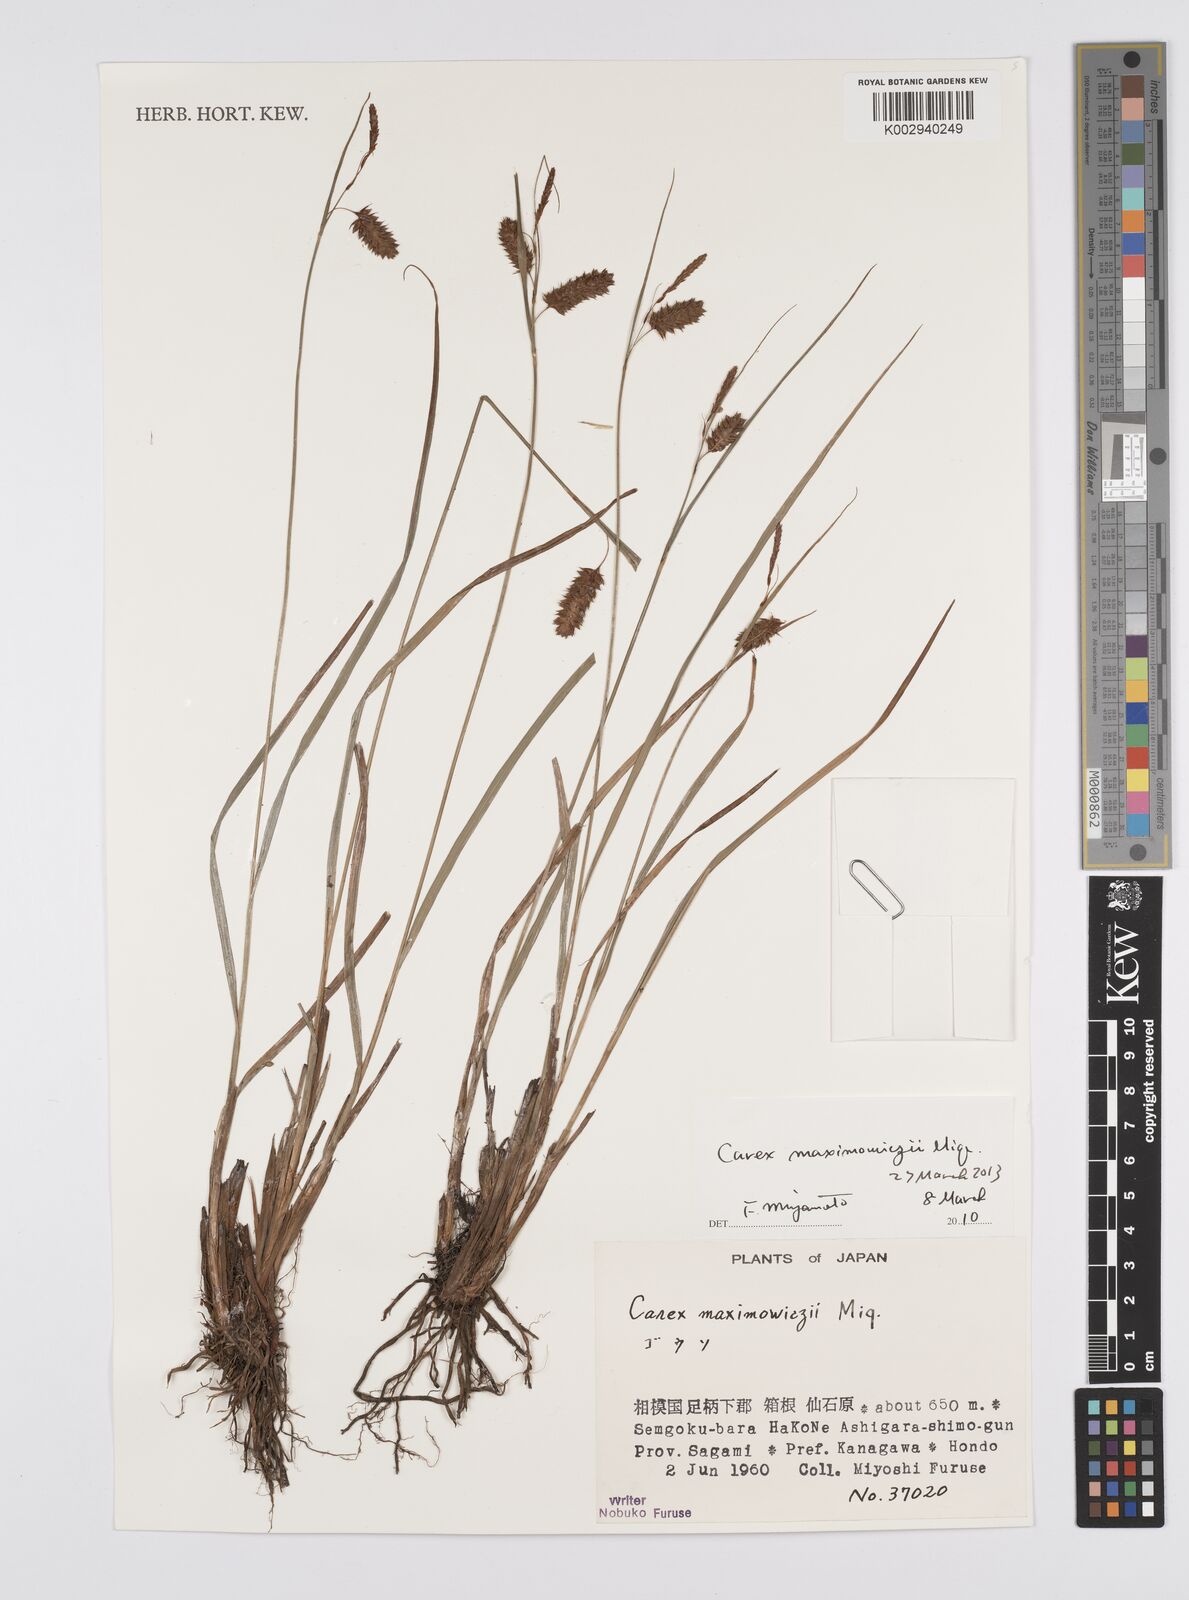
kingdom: Plantae
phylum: Tracheophyta
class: Liliopsida
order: Poales
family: Cyperaceae
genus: Carex
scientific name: Carex pruinosa
